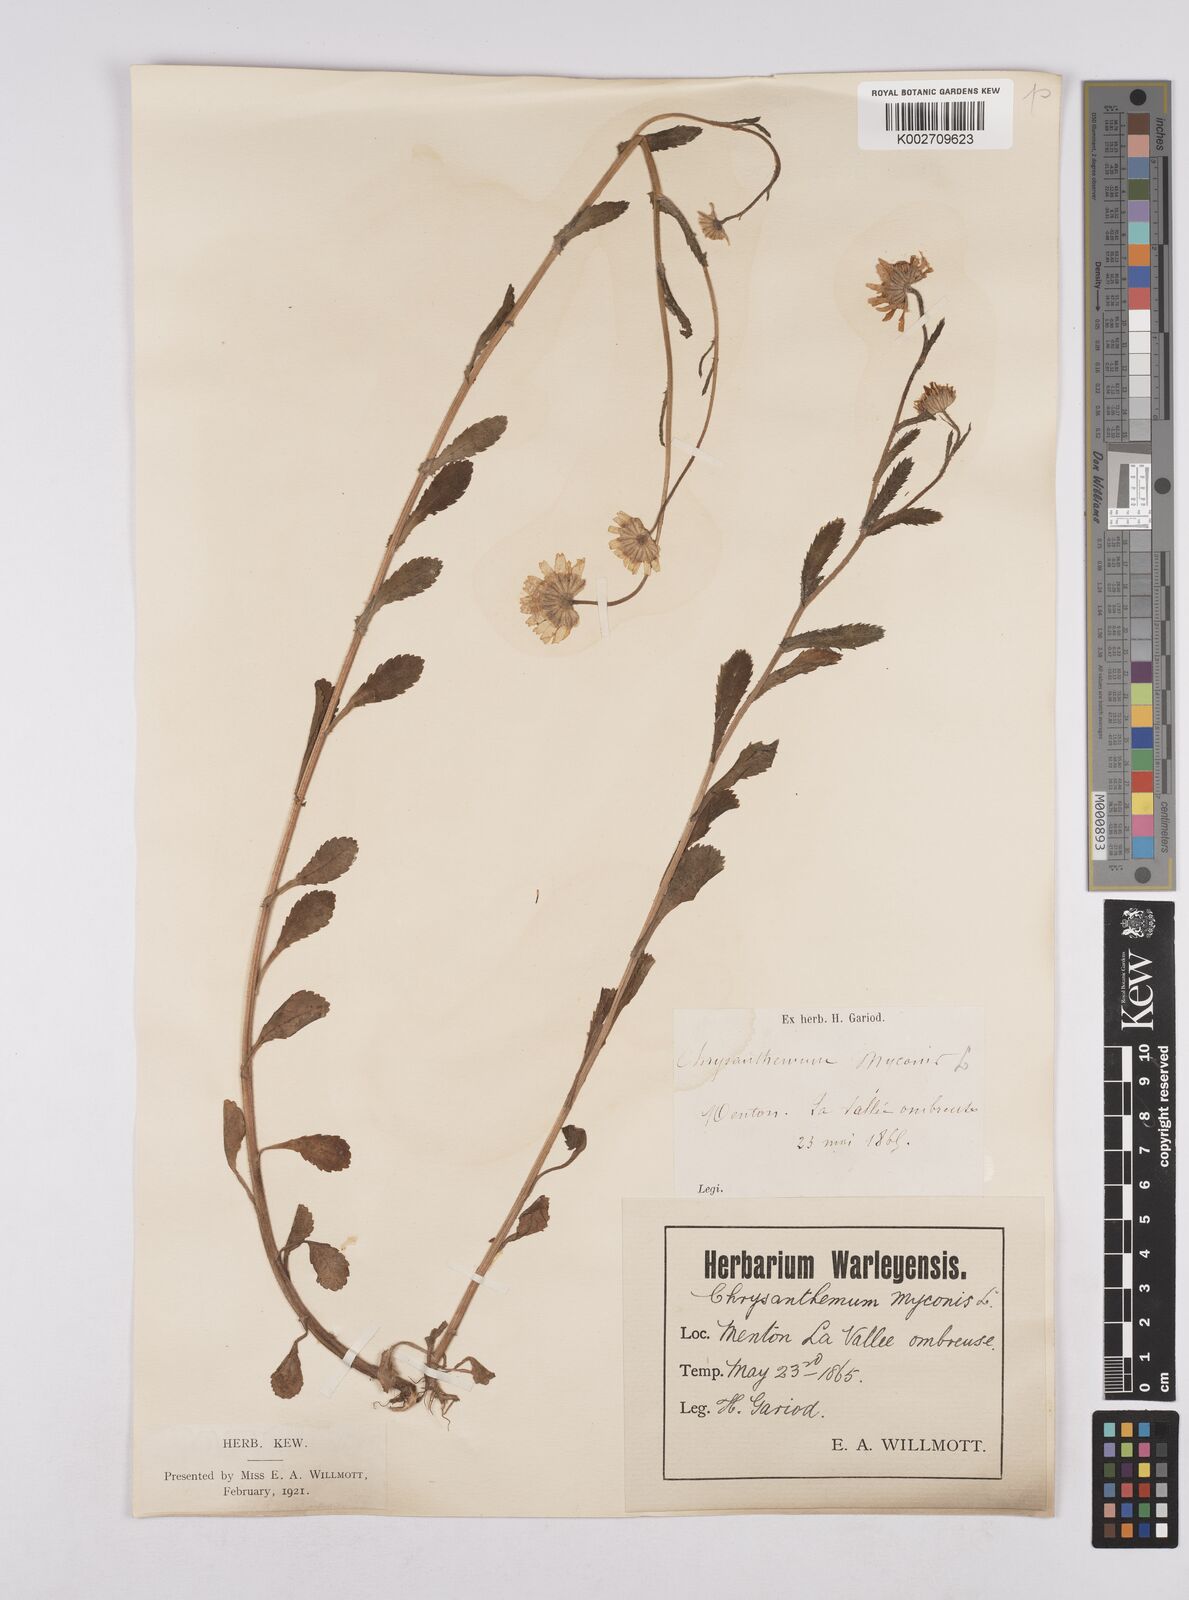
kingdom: Plantae
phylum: Tracheophyta
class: Magnoliopsida
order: Asterales
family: Asteraceae
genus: Coleostephus
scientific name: Coleostephus myconis
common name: Mediterranean marigold
